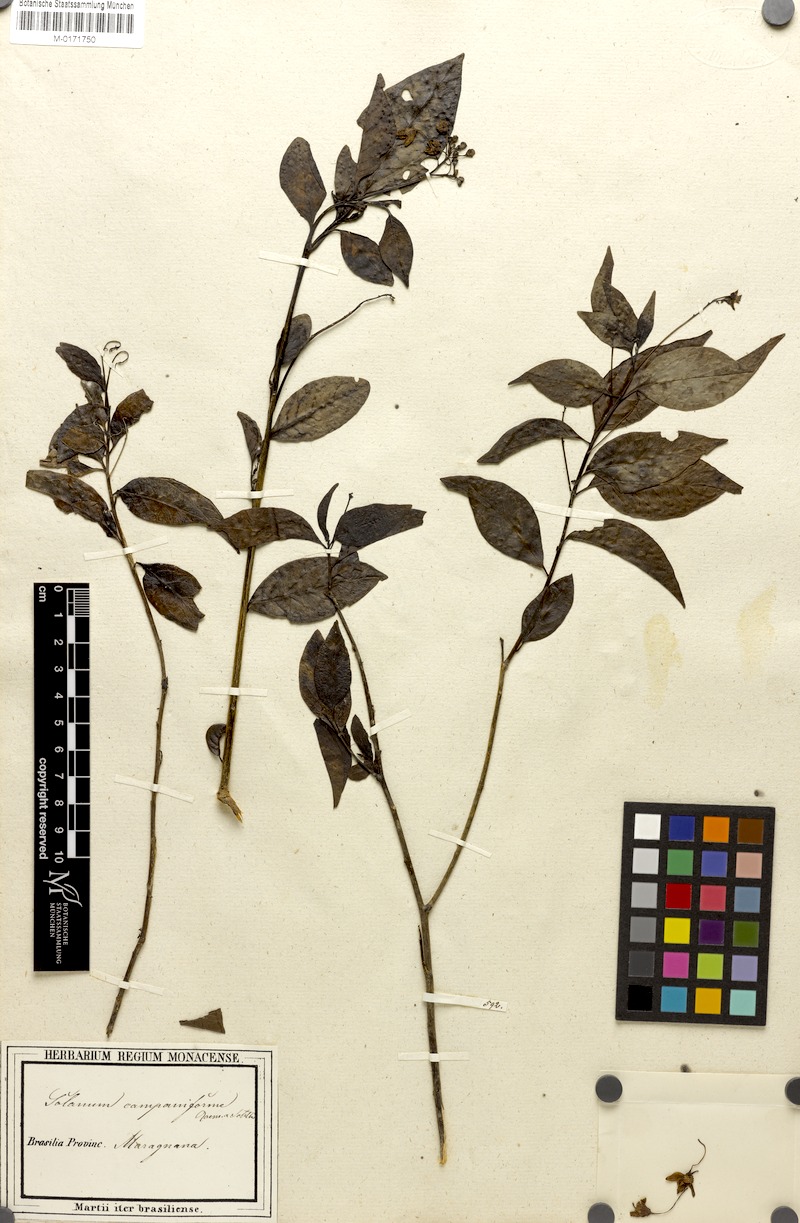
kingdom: Plantae
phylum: Tracheophyta
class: Magnoliopsida
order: Solanales
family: Solanaceae
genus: Solanum
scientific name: Solanum campaniforme
